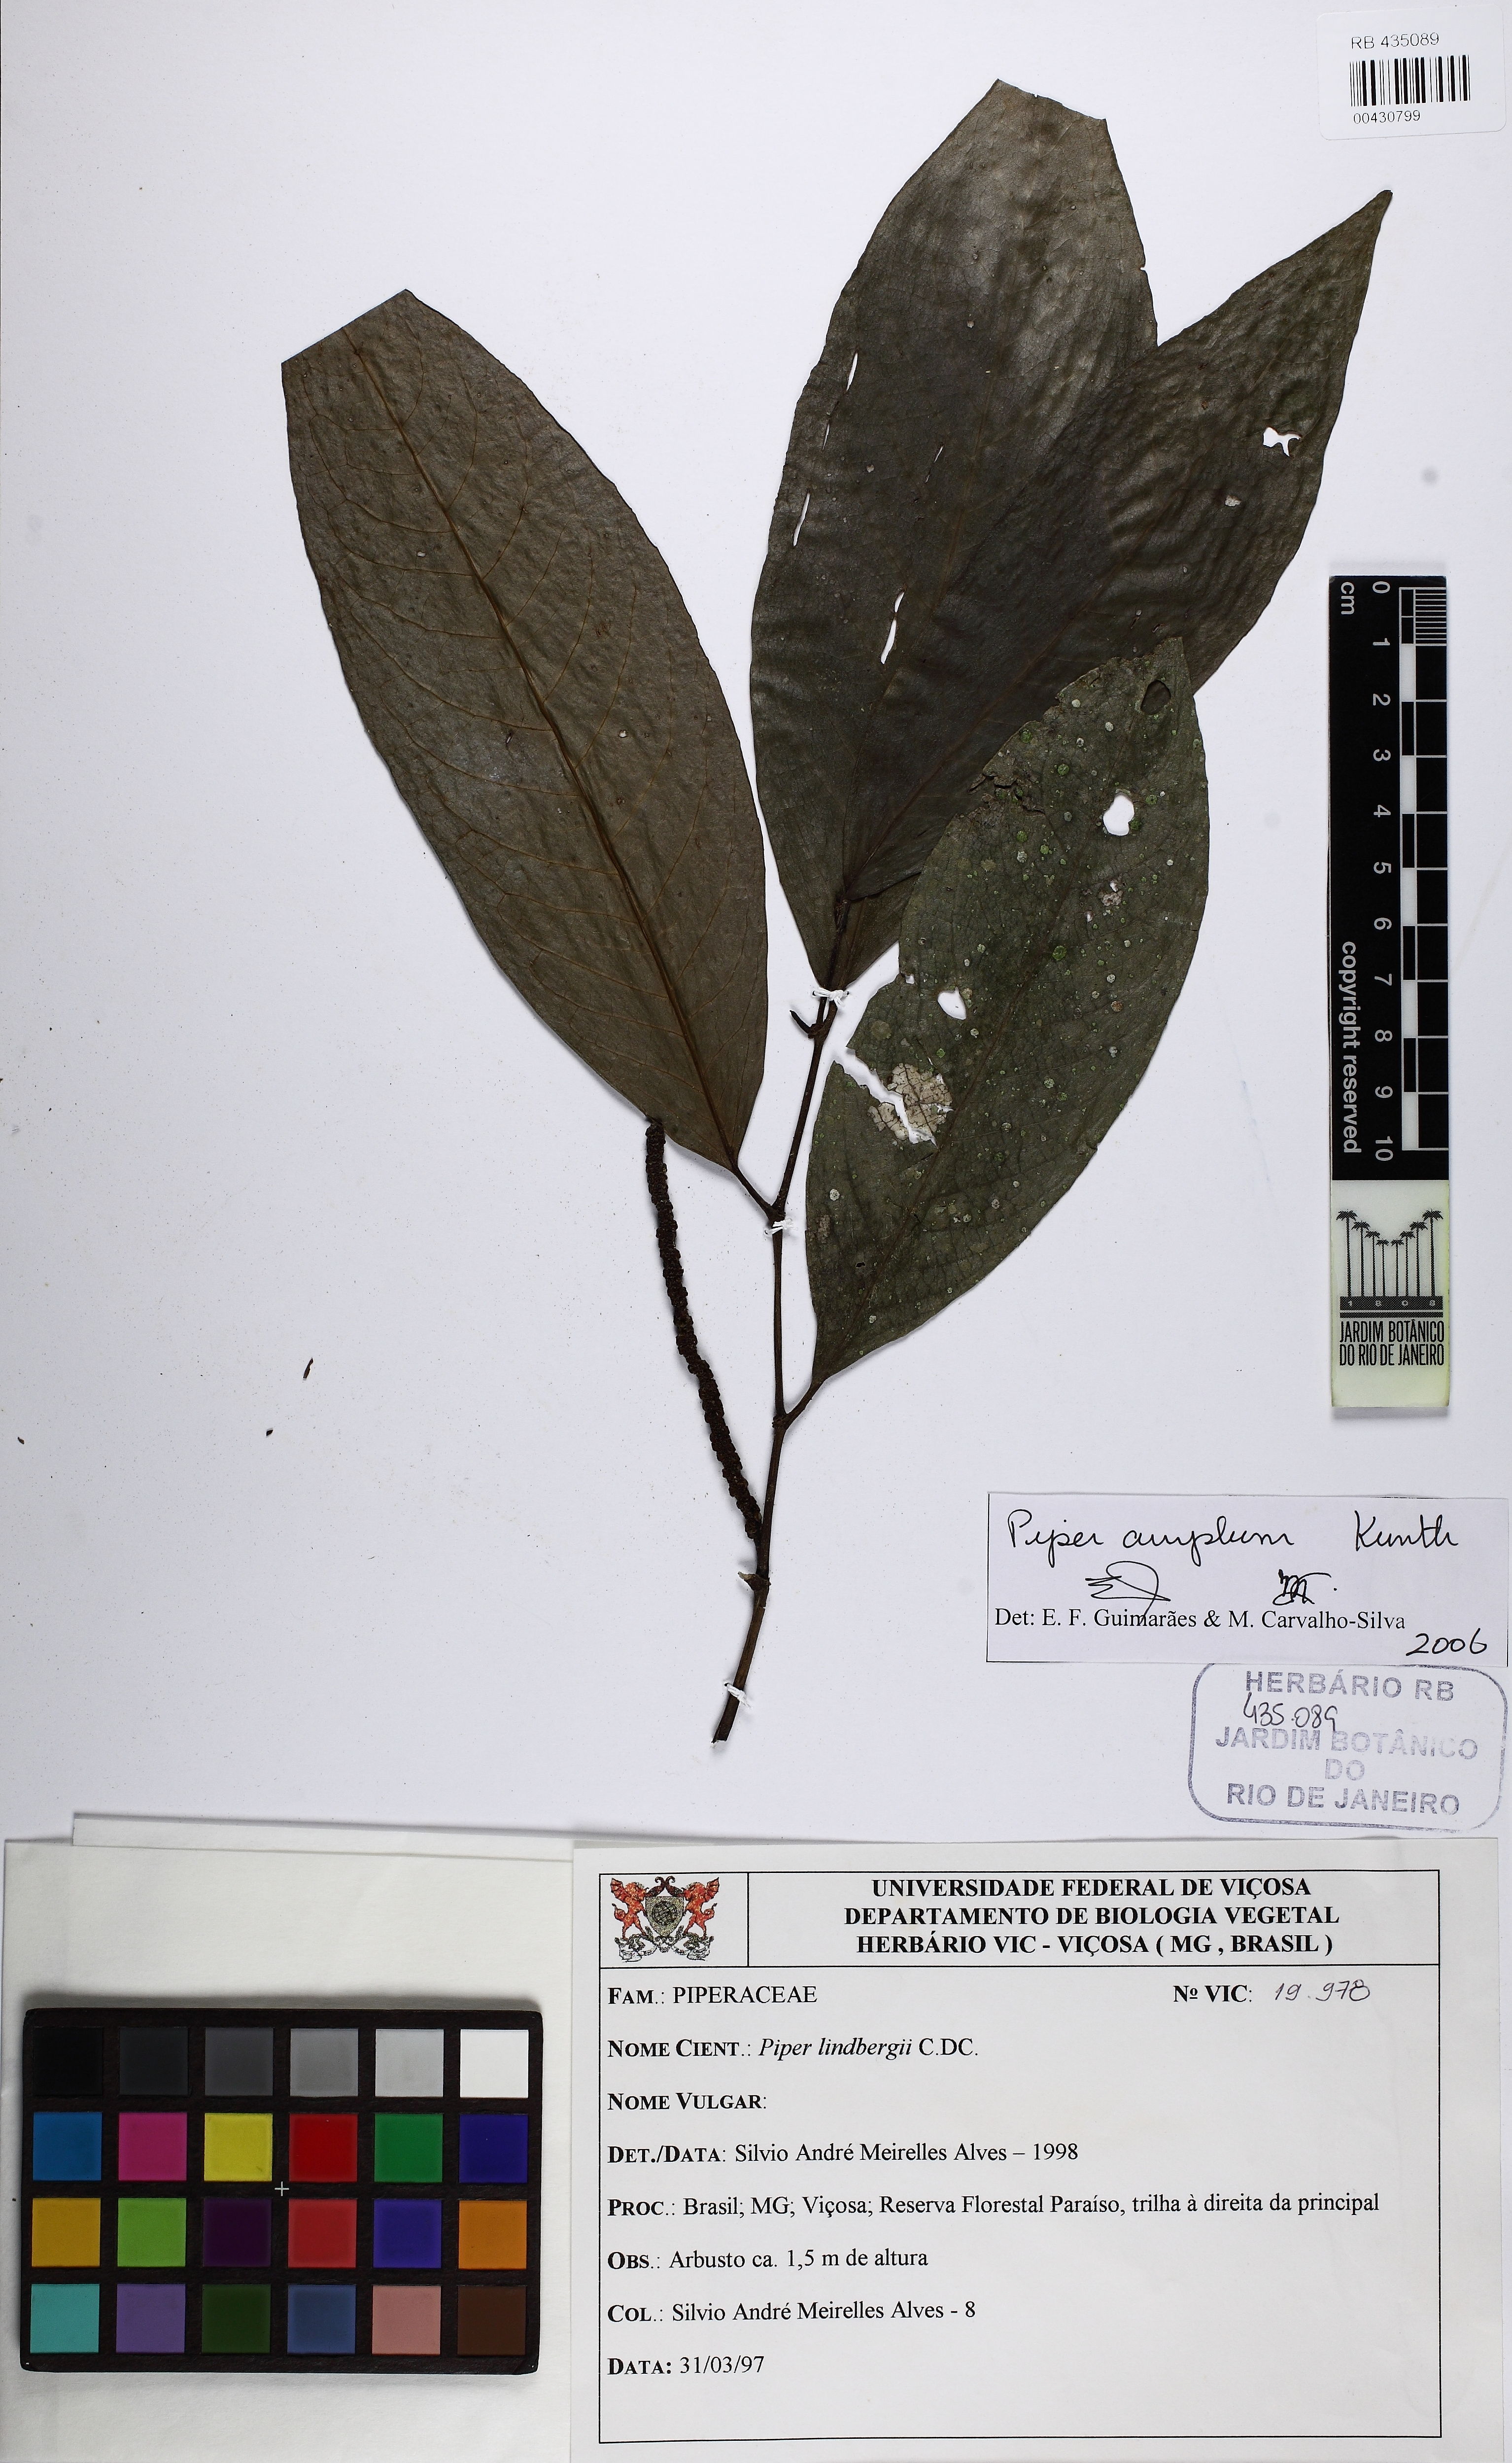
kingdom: Plantae
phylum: Tracheophyta
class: Magnoliopsida
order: Piperales
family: Piperaceae
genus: Piper
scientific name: Piper fluminense
